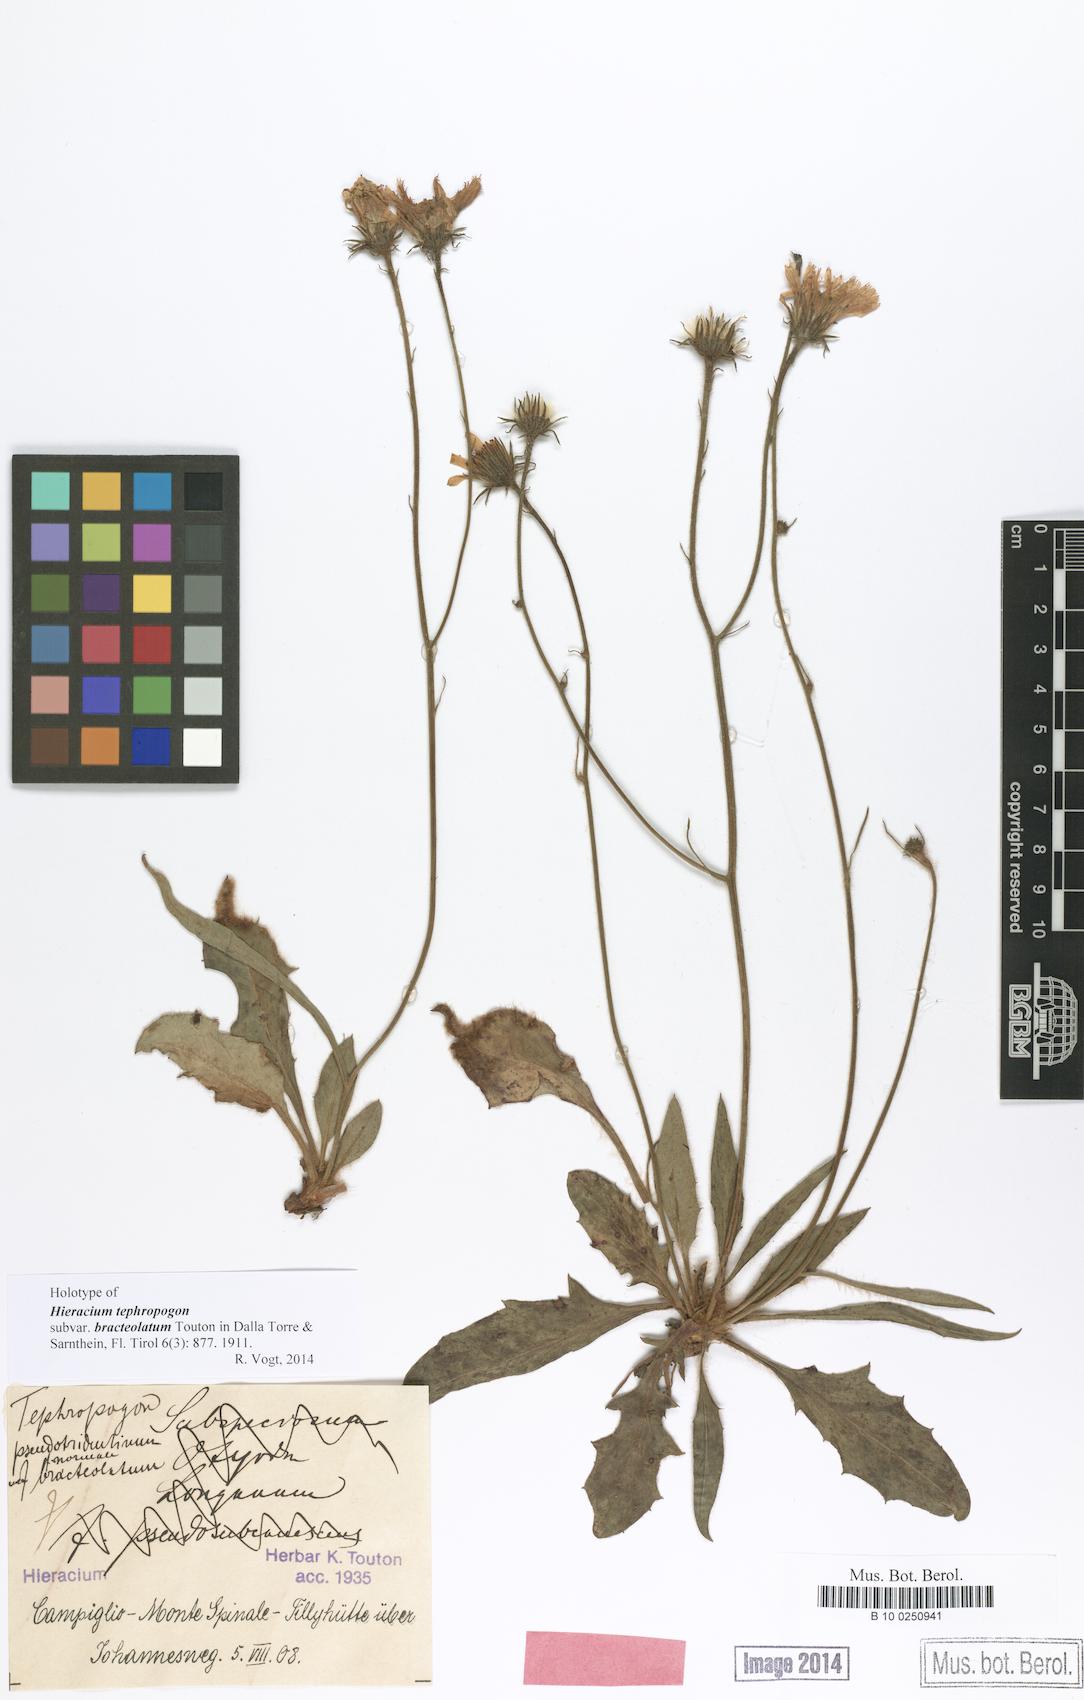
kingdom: Plantae
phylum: Tracheophyta
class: Magnoliopsida
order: Asterales
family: Asteraceae
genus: Hieracium
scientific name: Hieracium tephropogon
